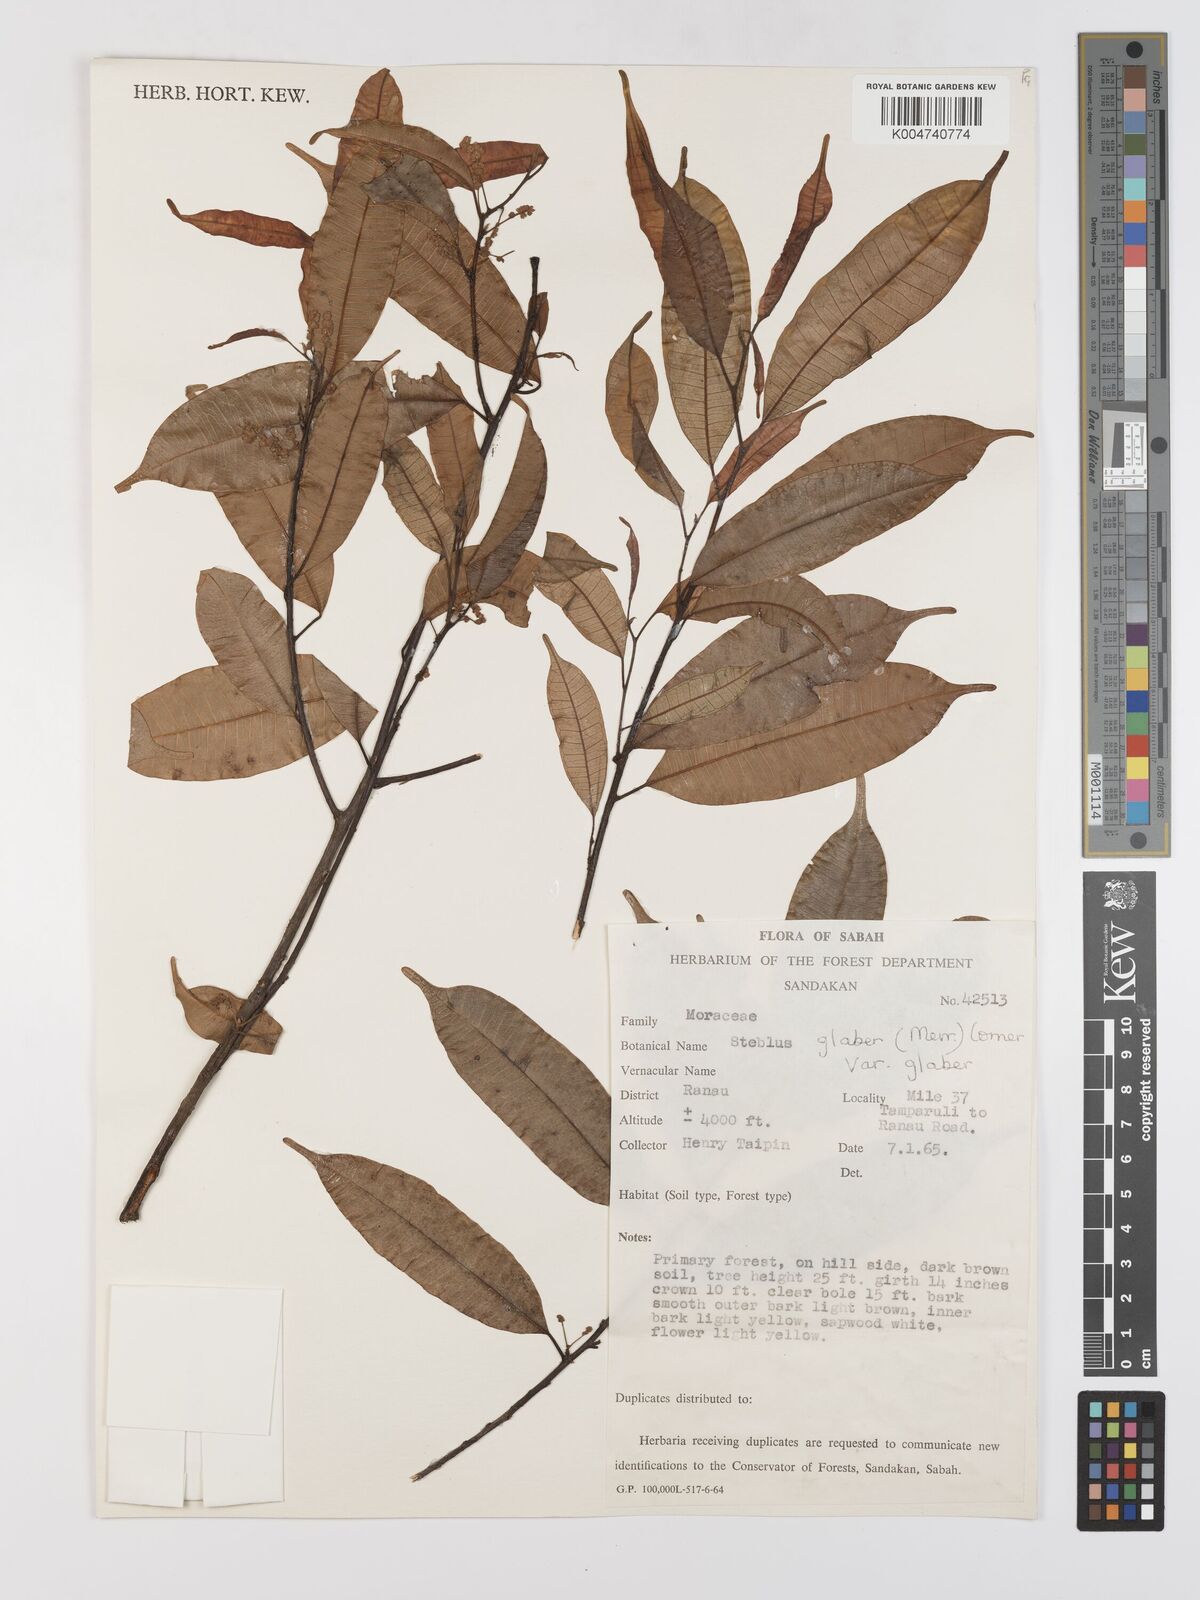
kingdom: Plantae
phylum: Tracheophyta
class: Magnoliopsida
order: Rosales
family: Moraceae
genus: Paratrophis
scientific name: Paratrophis glabra
